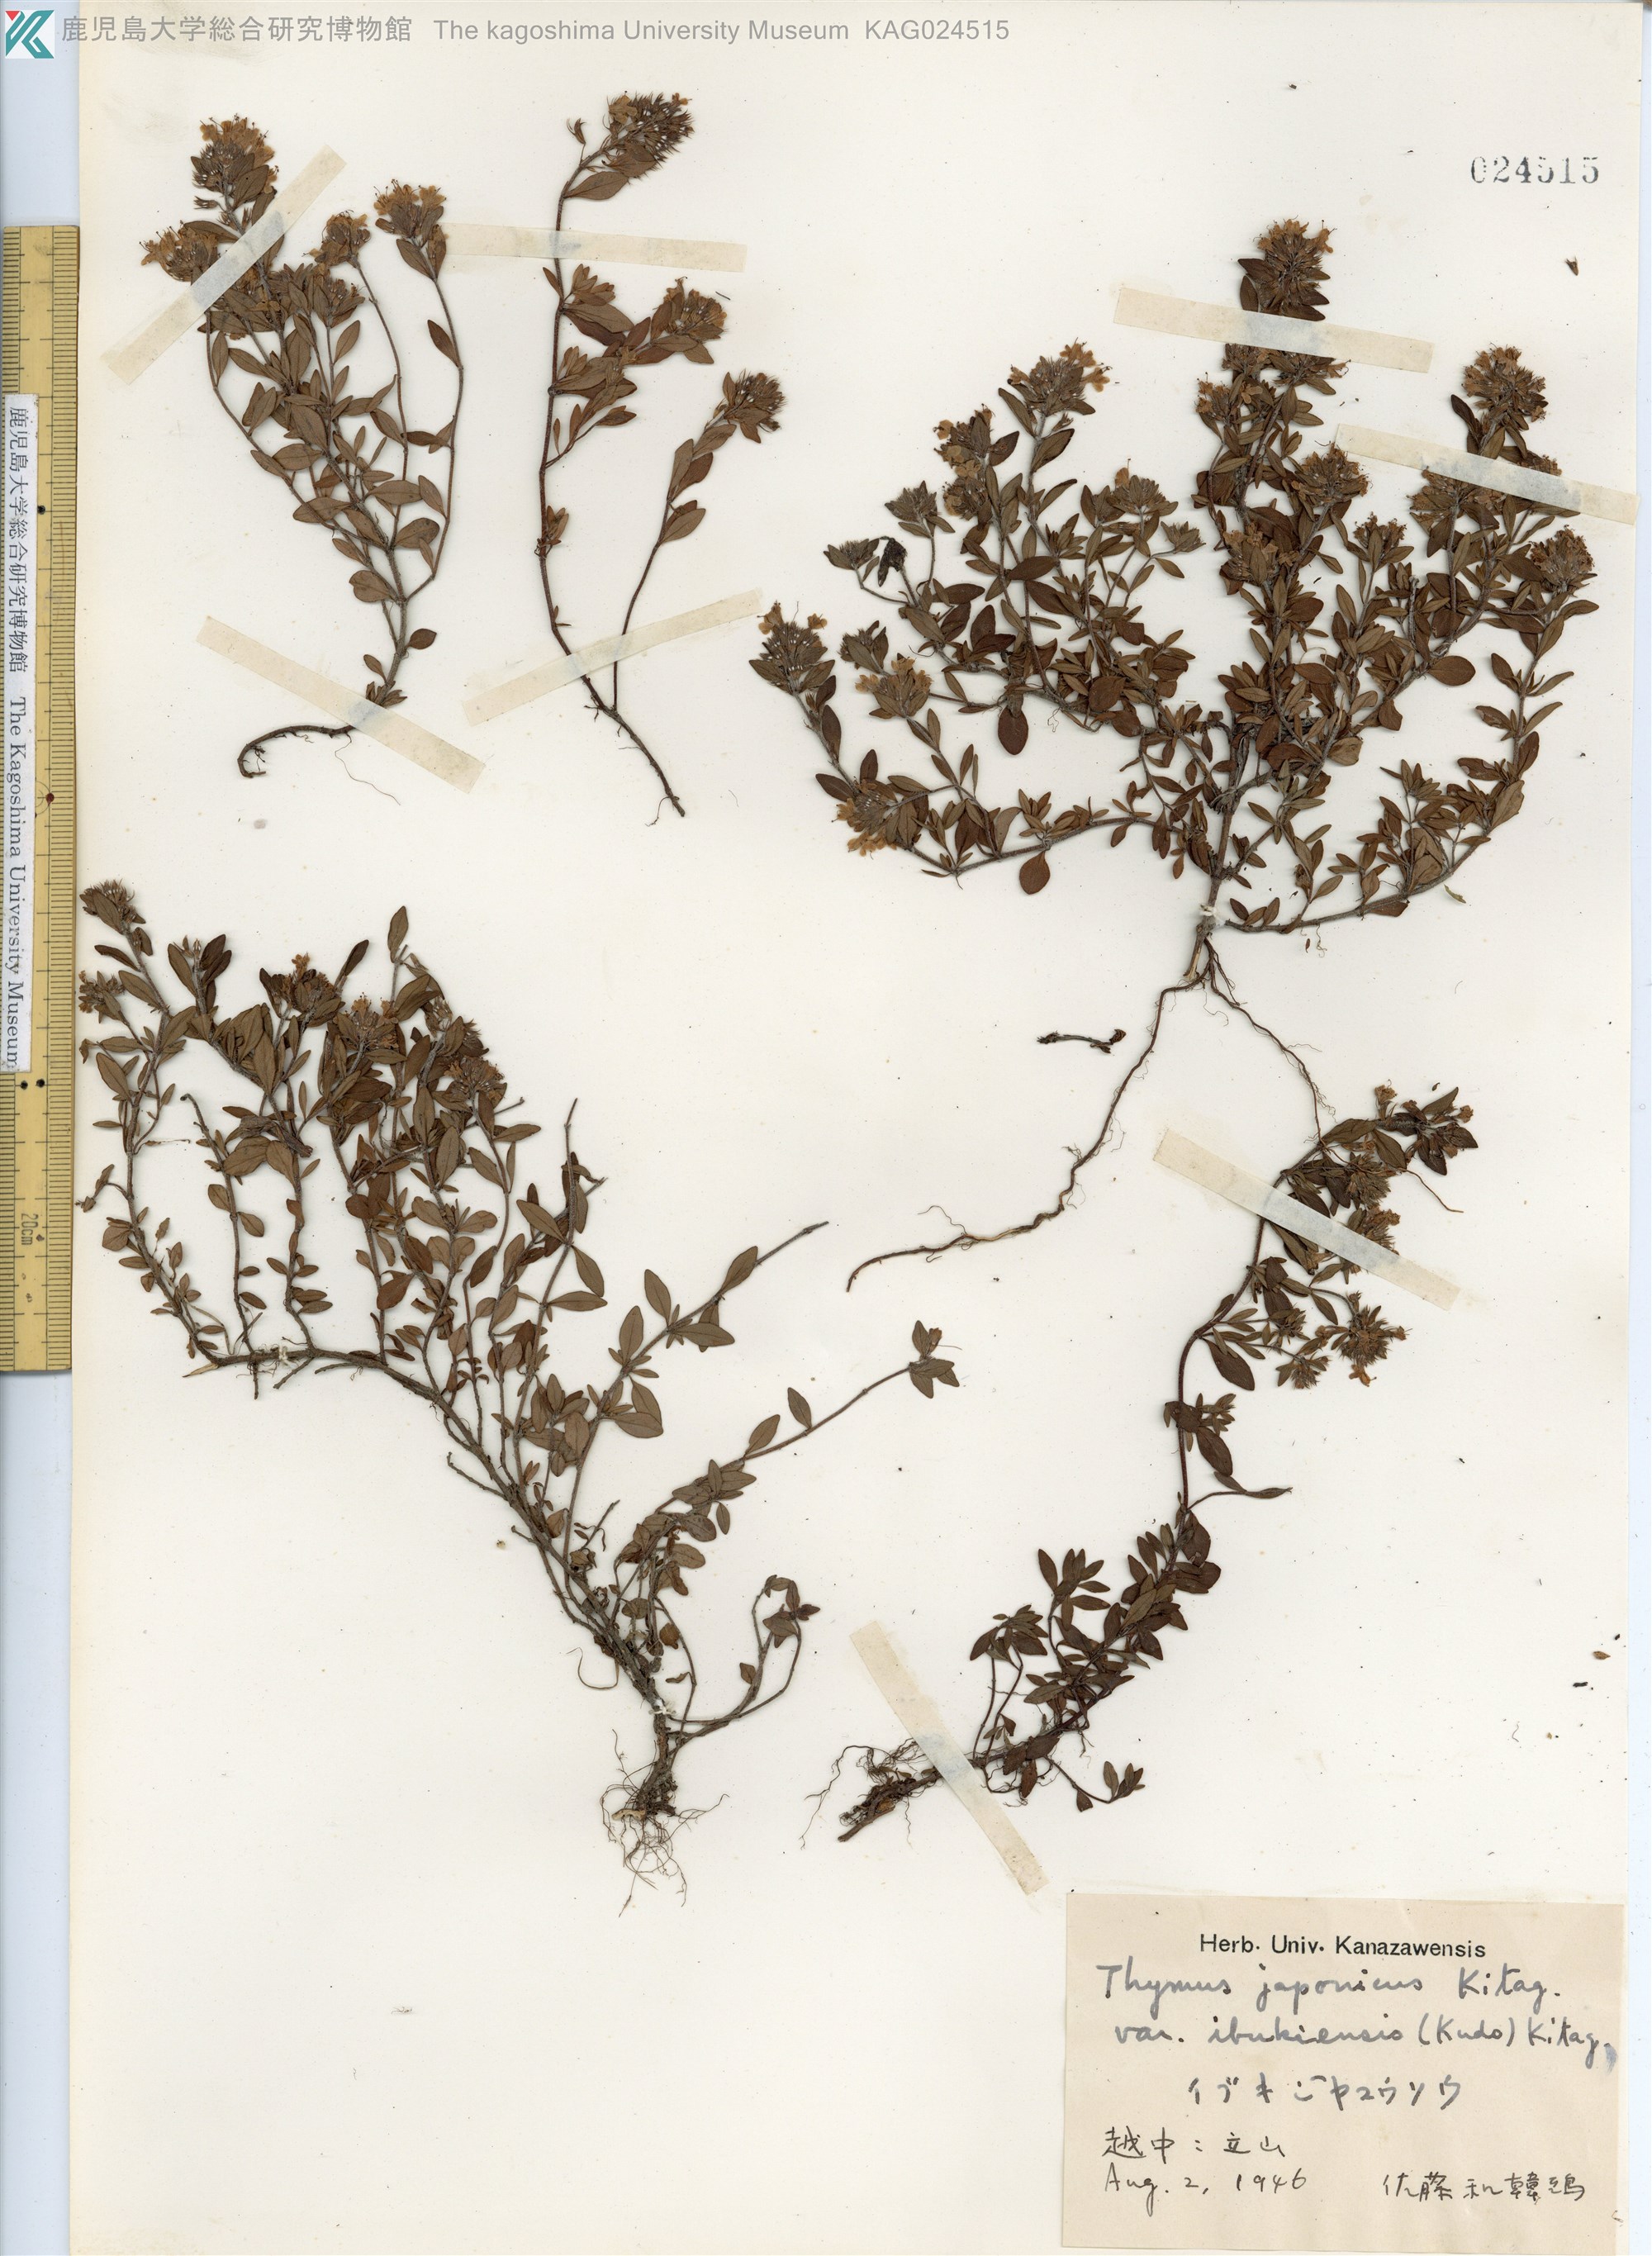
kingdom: Plantae
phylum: Tracheophyta
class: Magnoliopsida
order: Lamiales
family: Lamiaceae
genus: Thymus
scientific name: Thymus quinquecostatus
